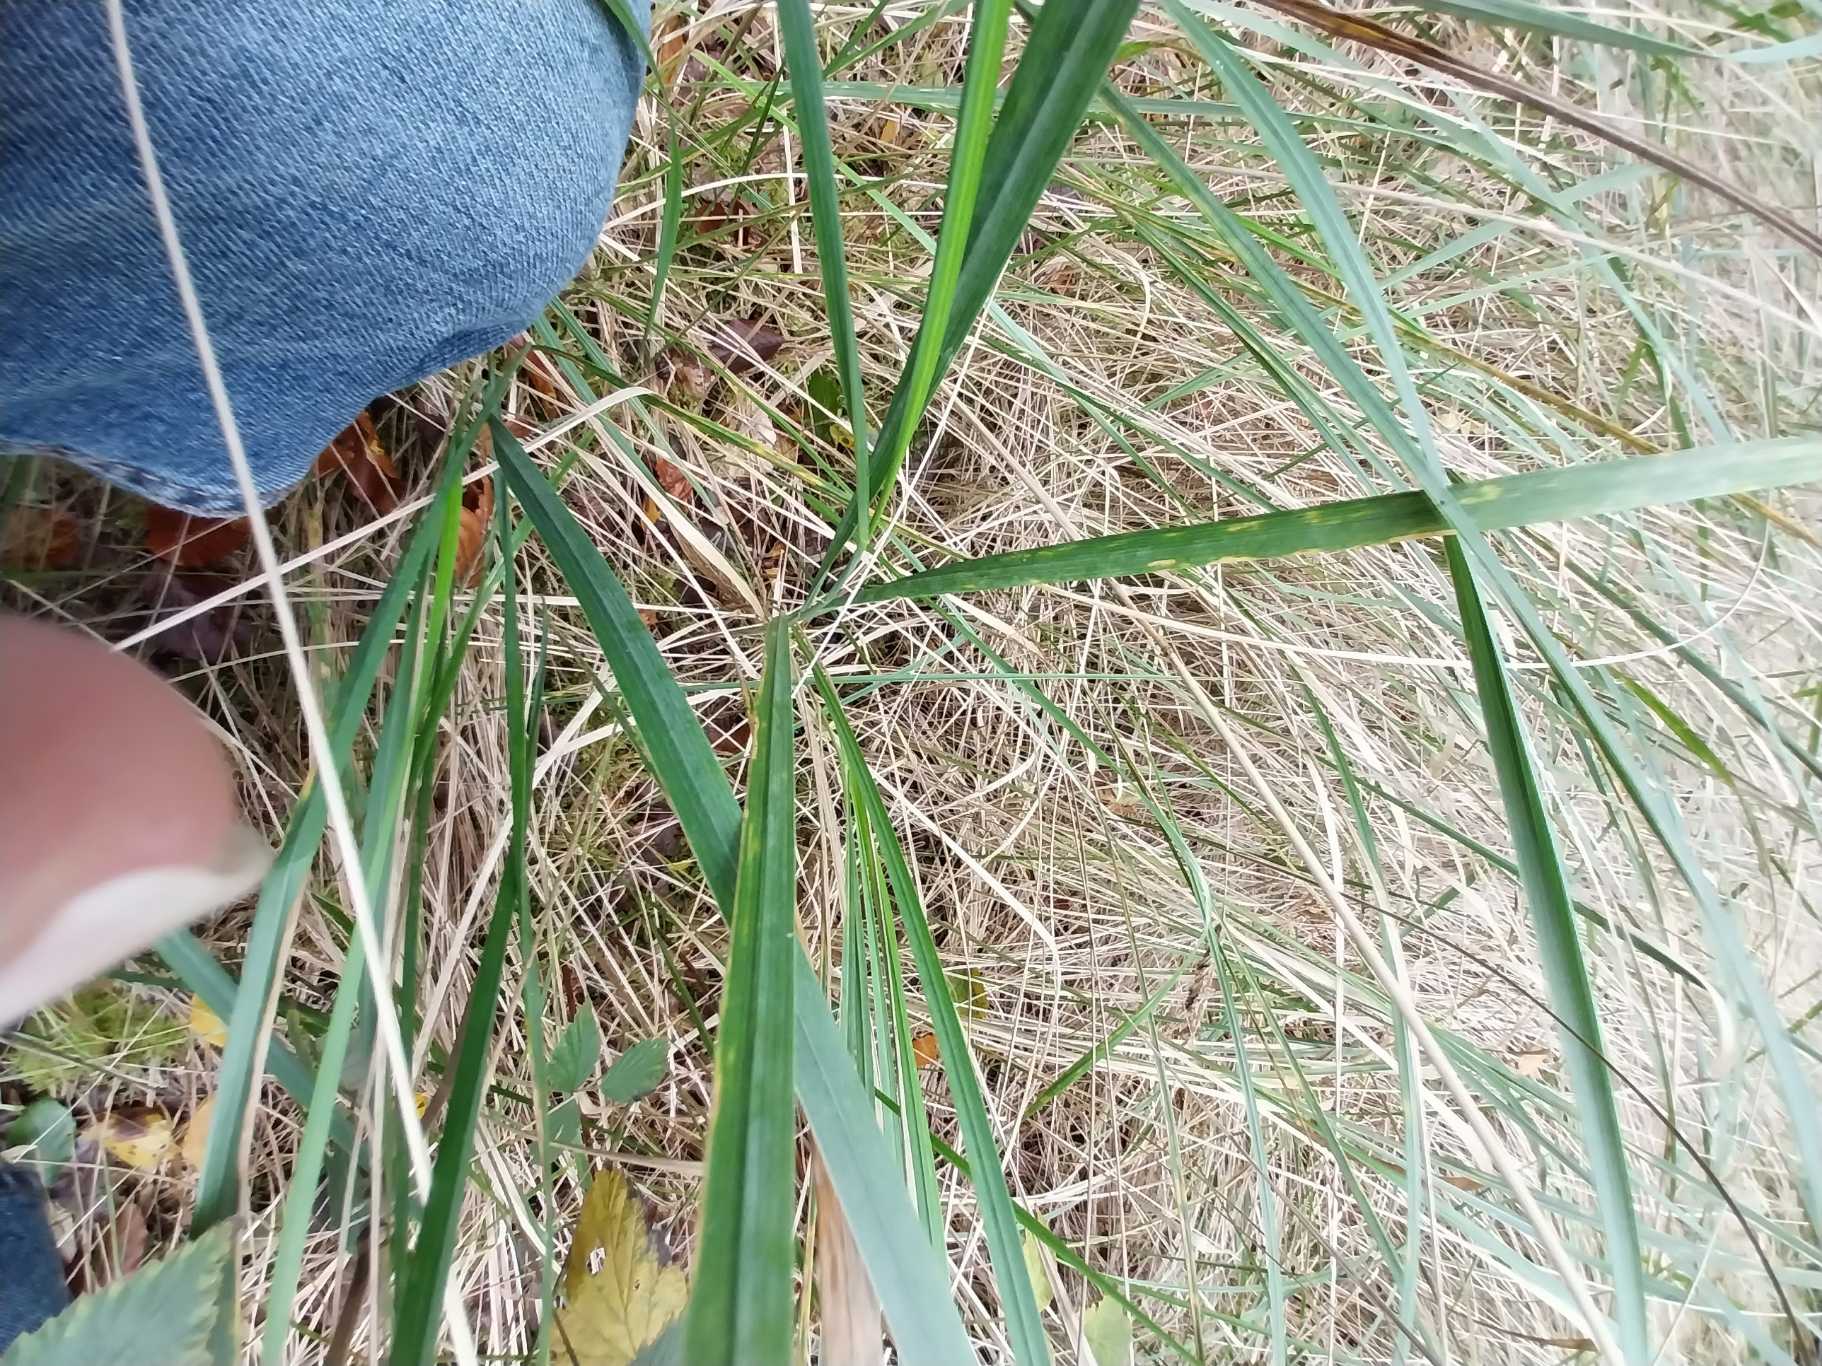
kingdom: Plantae
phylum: Tracheophyta
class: Liliopsida
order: Poales
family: Poaceae
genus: Calamagrostis
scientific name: Calamagrostis epigejos
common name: Bjerg-rørhvene
